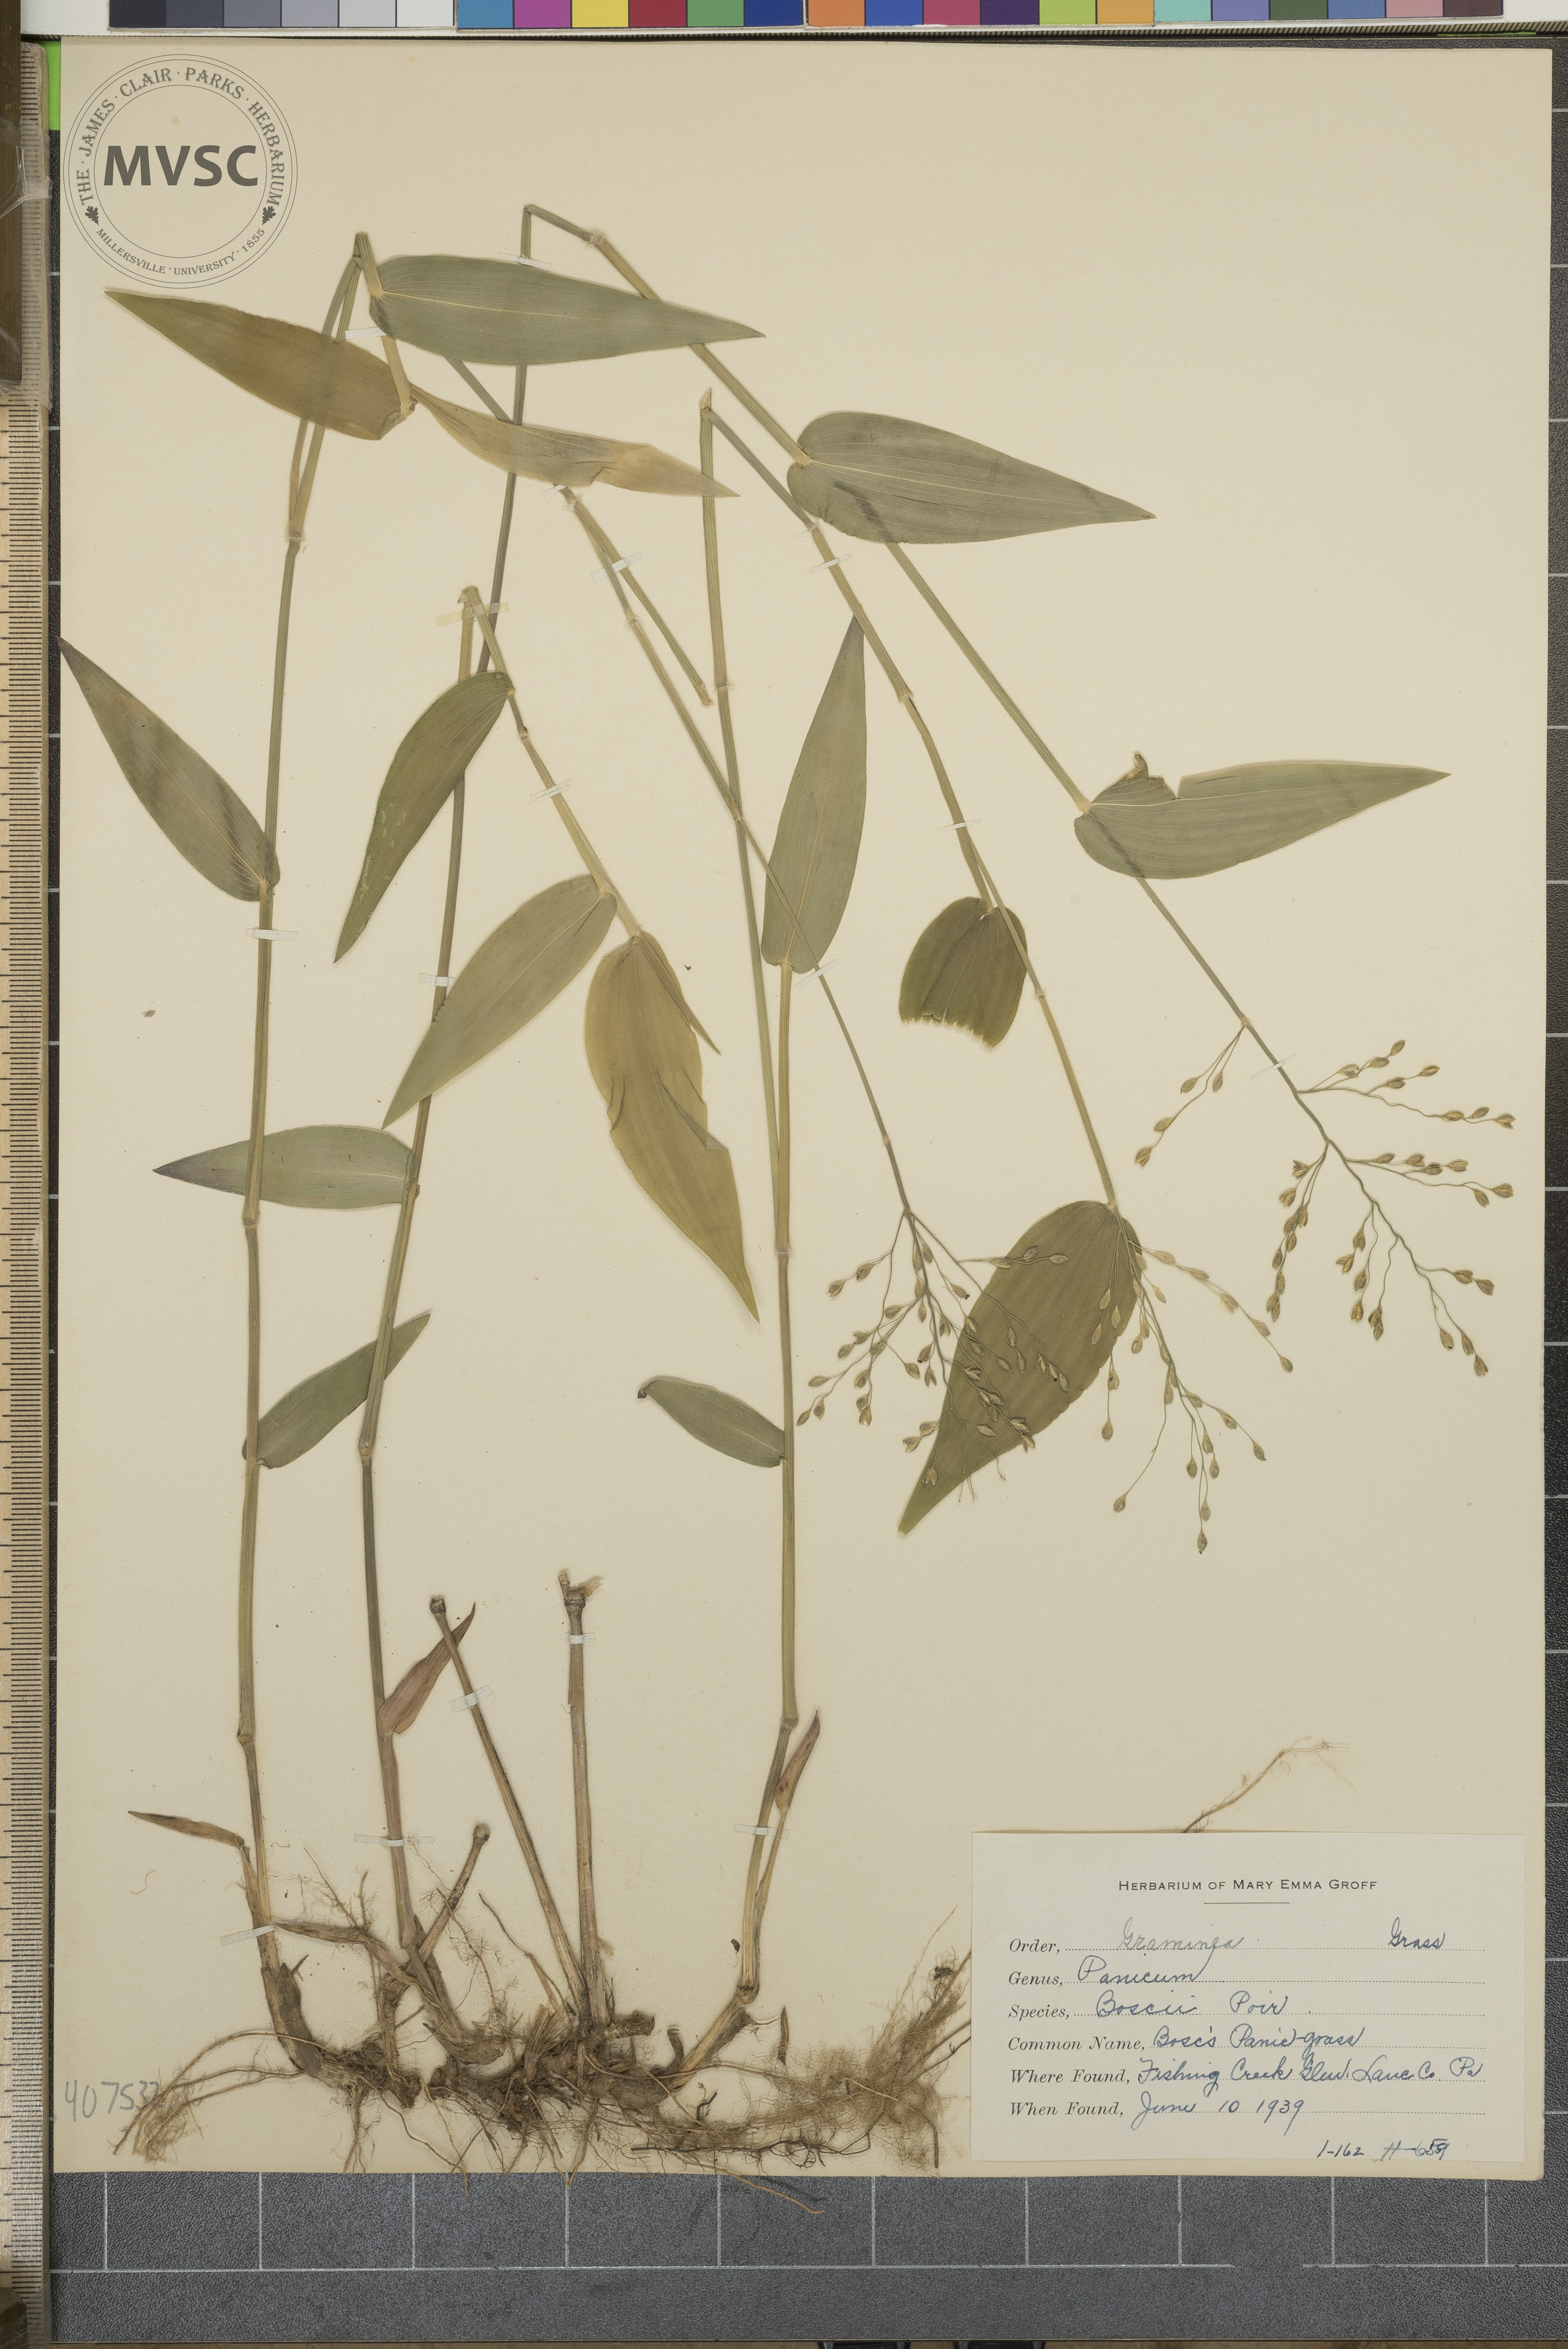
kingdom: Plantae
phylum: Tracheophyta
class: Liliopsida
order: Poales
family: Poaceae
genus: Dichanthelium
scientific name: Dichanthelium boscii
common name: Bosc's Panic Grass
